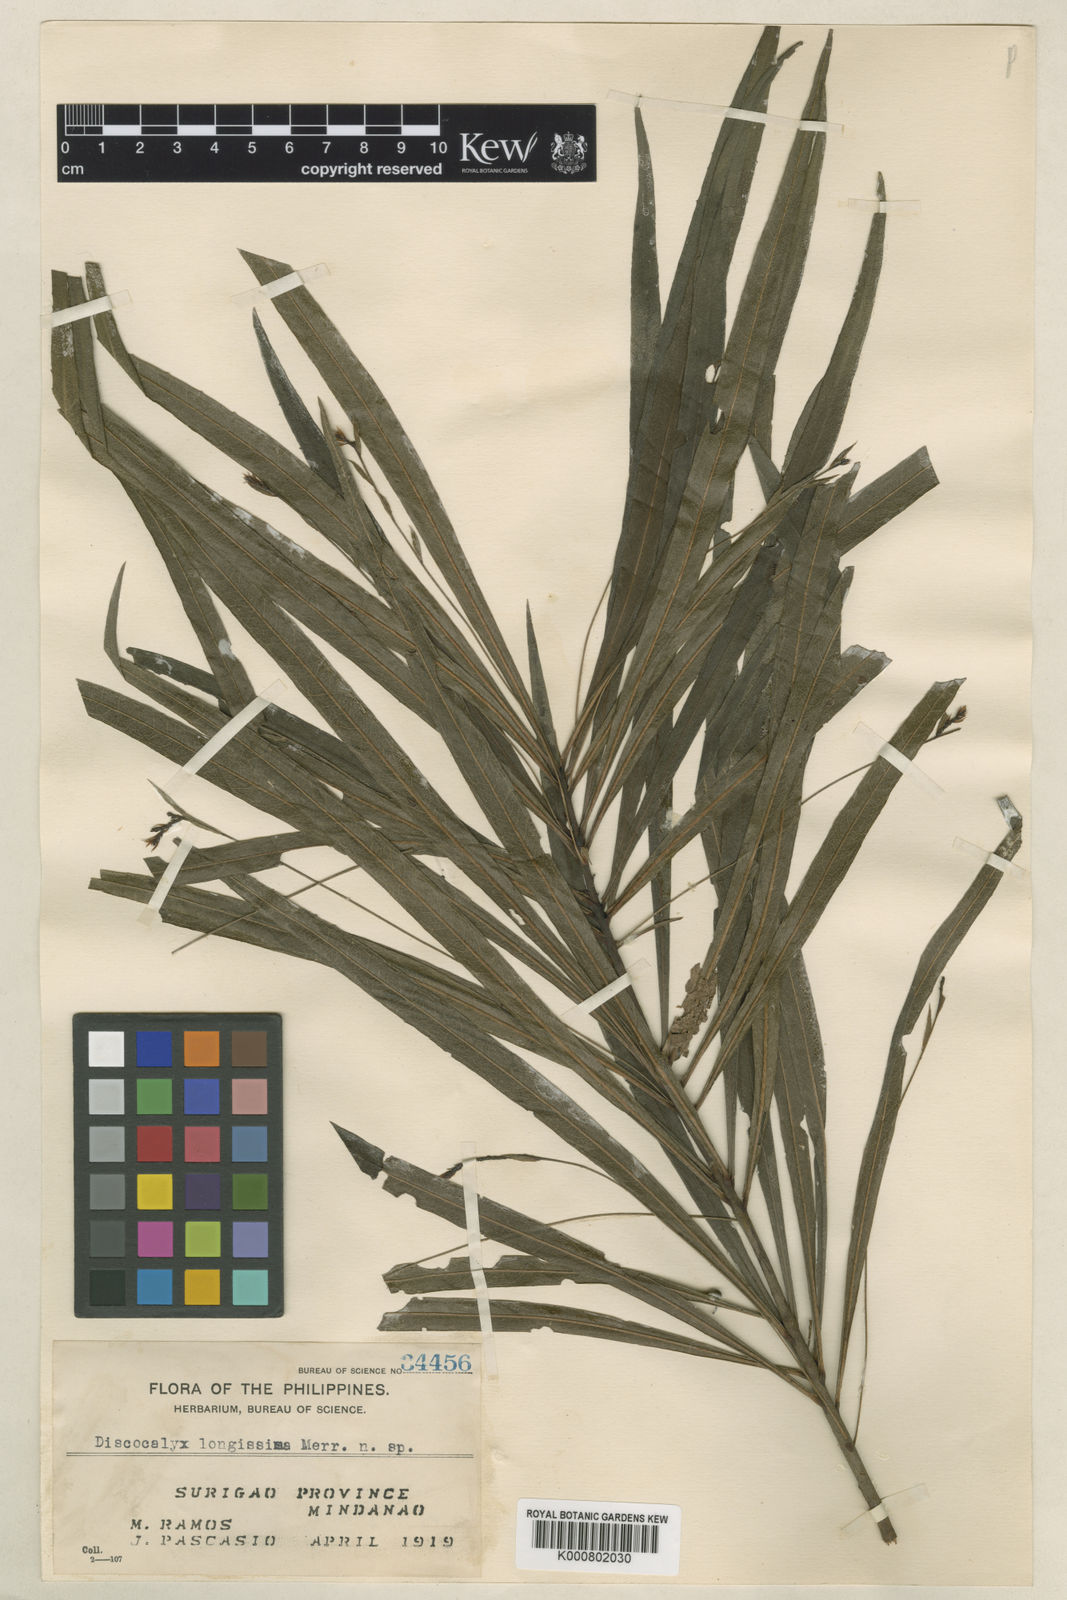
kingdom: Plantae
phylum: Tracheophyta
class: Magnoliopsida
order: Ericales
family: Primulaceae
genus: Discocalyx
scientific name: Discocalyx angustissima
